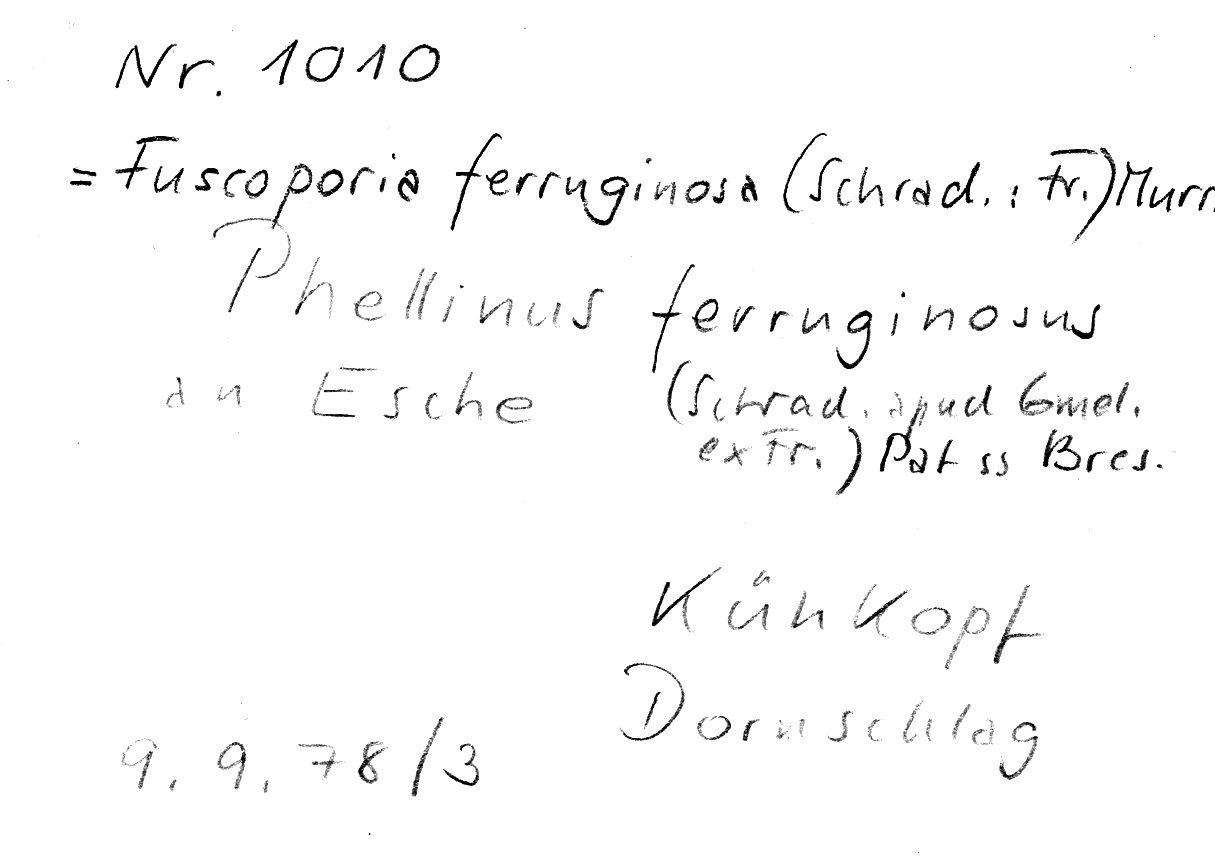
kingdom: Plantae
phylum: Tracheophyta
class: Magnoliopsida
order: Lamiales
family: Oleaceae
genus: Fraxinus
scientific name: Fraxinus
